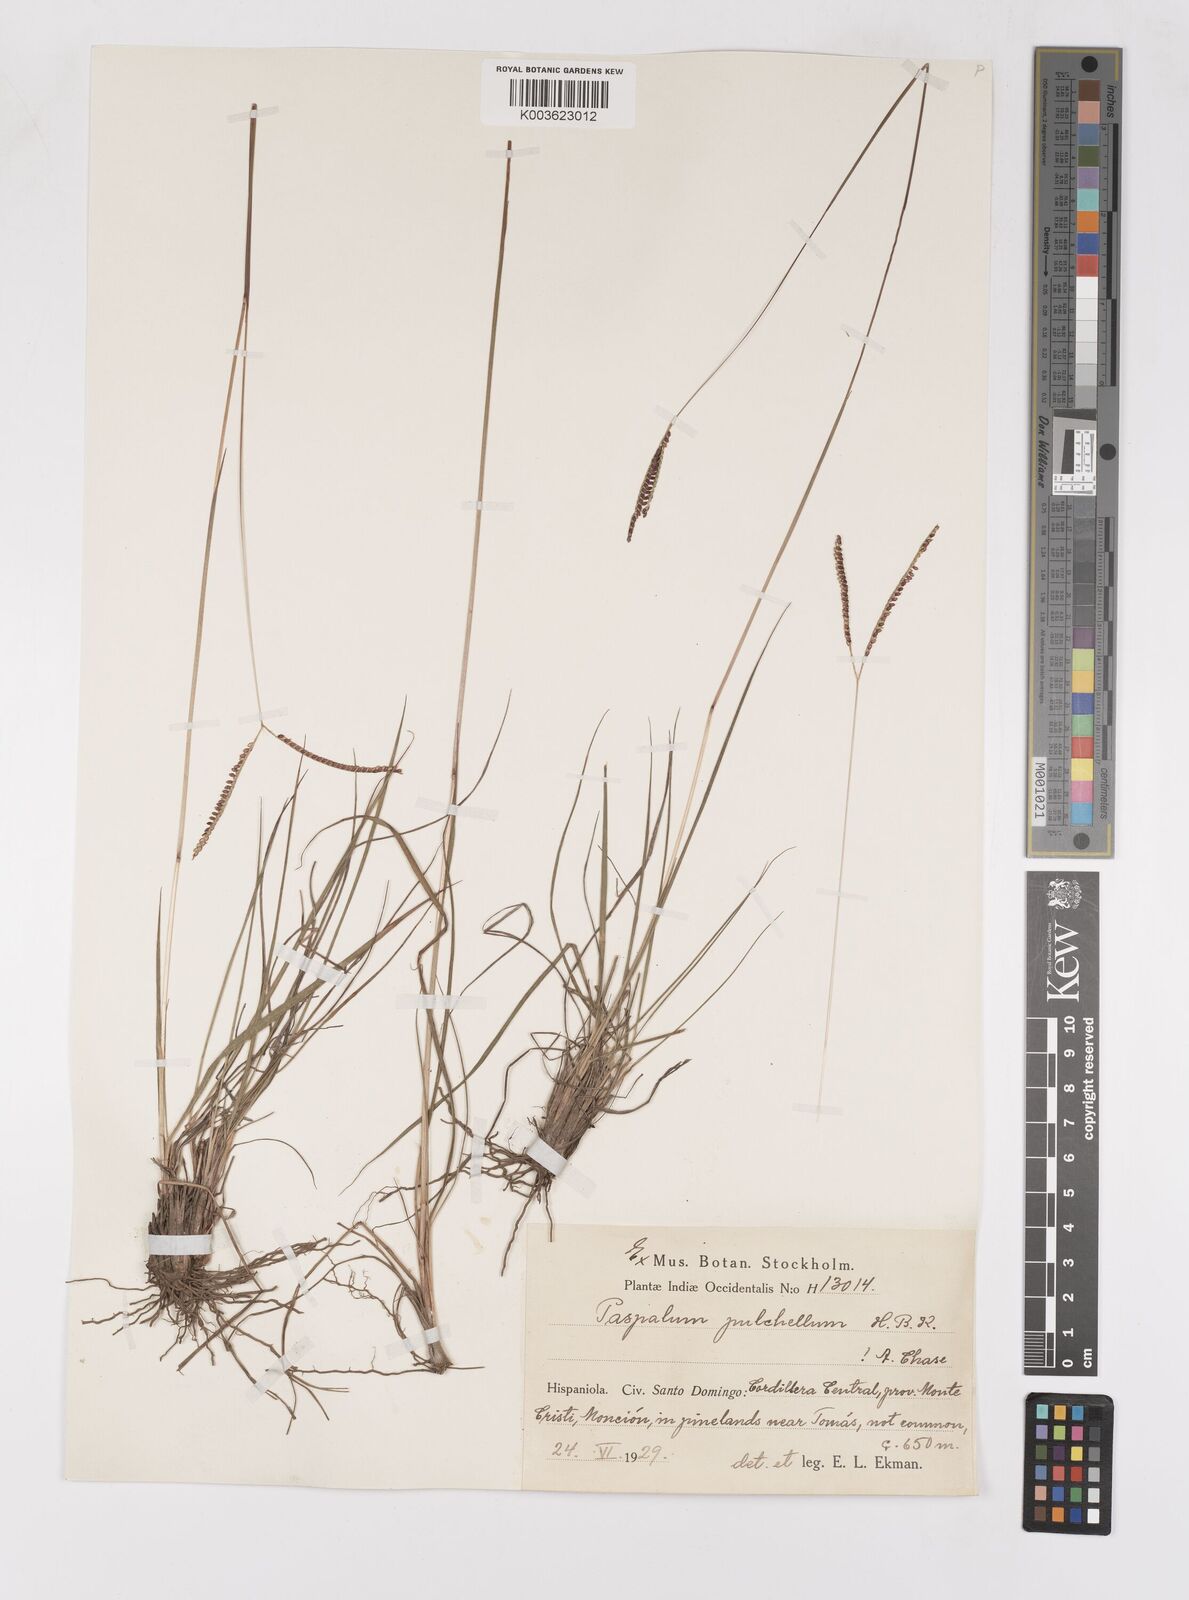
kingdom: Plantae
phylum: Tracheophyta
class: Liliopsida
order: Poales
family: Poaceae
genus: Paspalum
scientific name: Paspalum pulchellum
